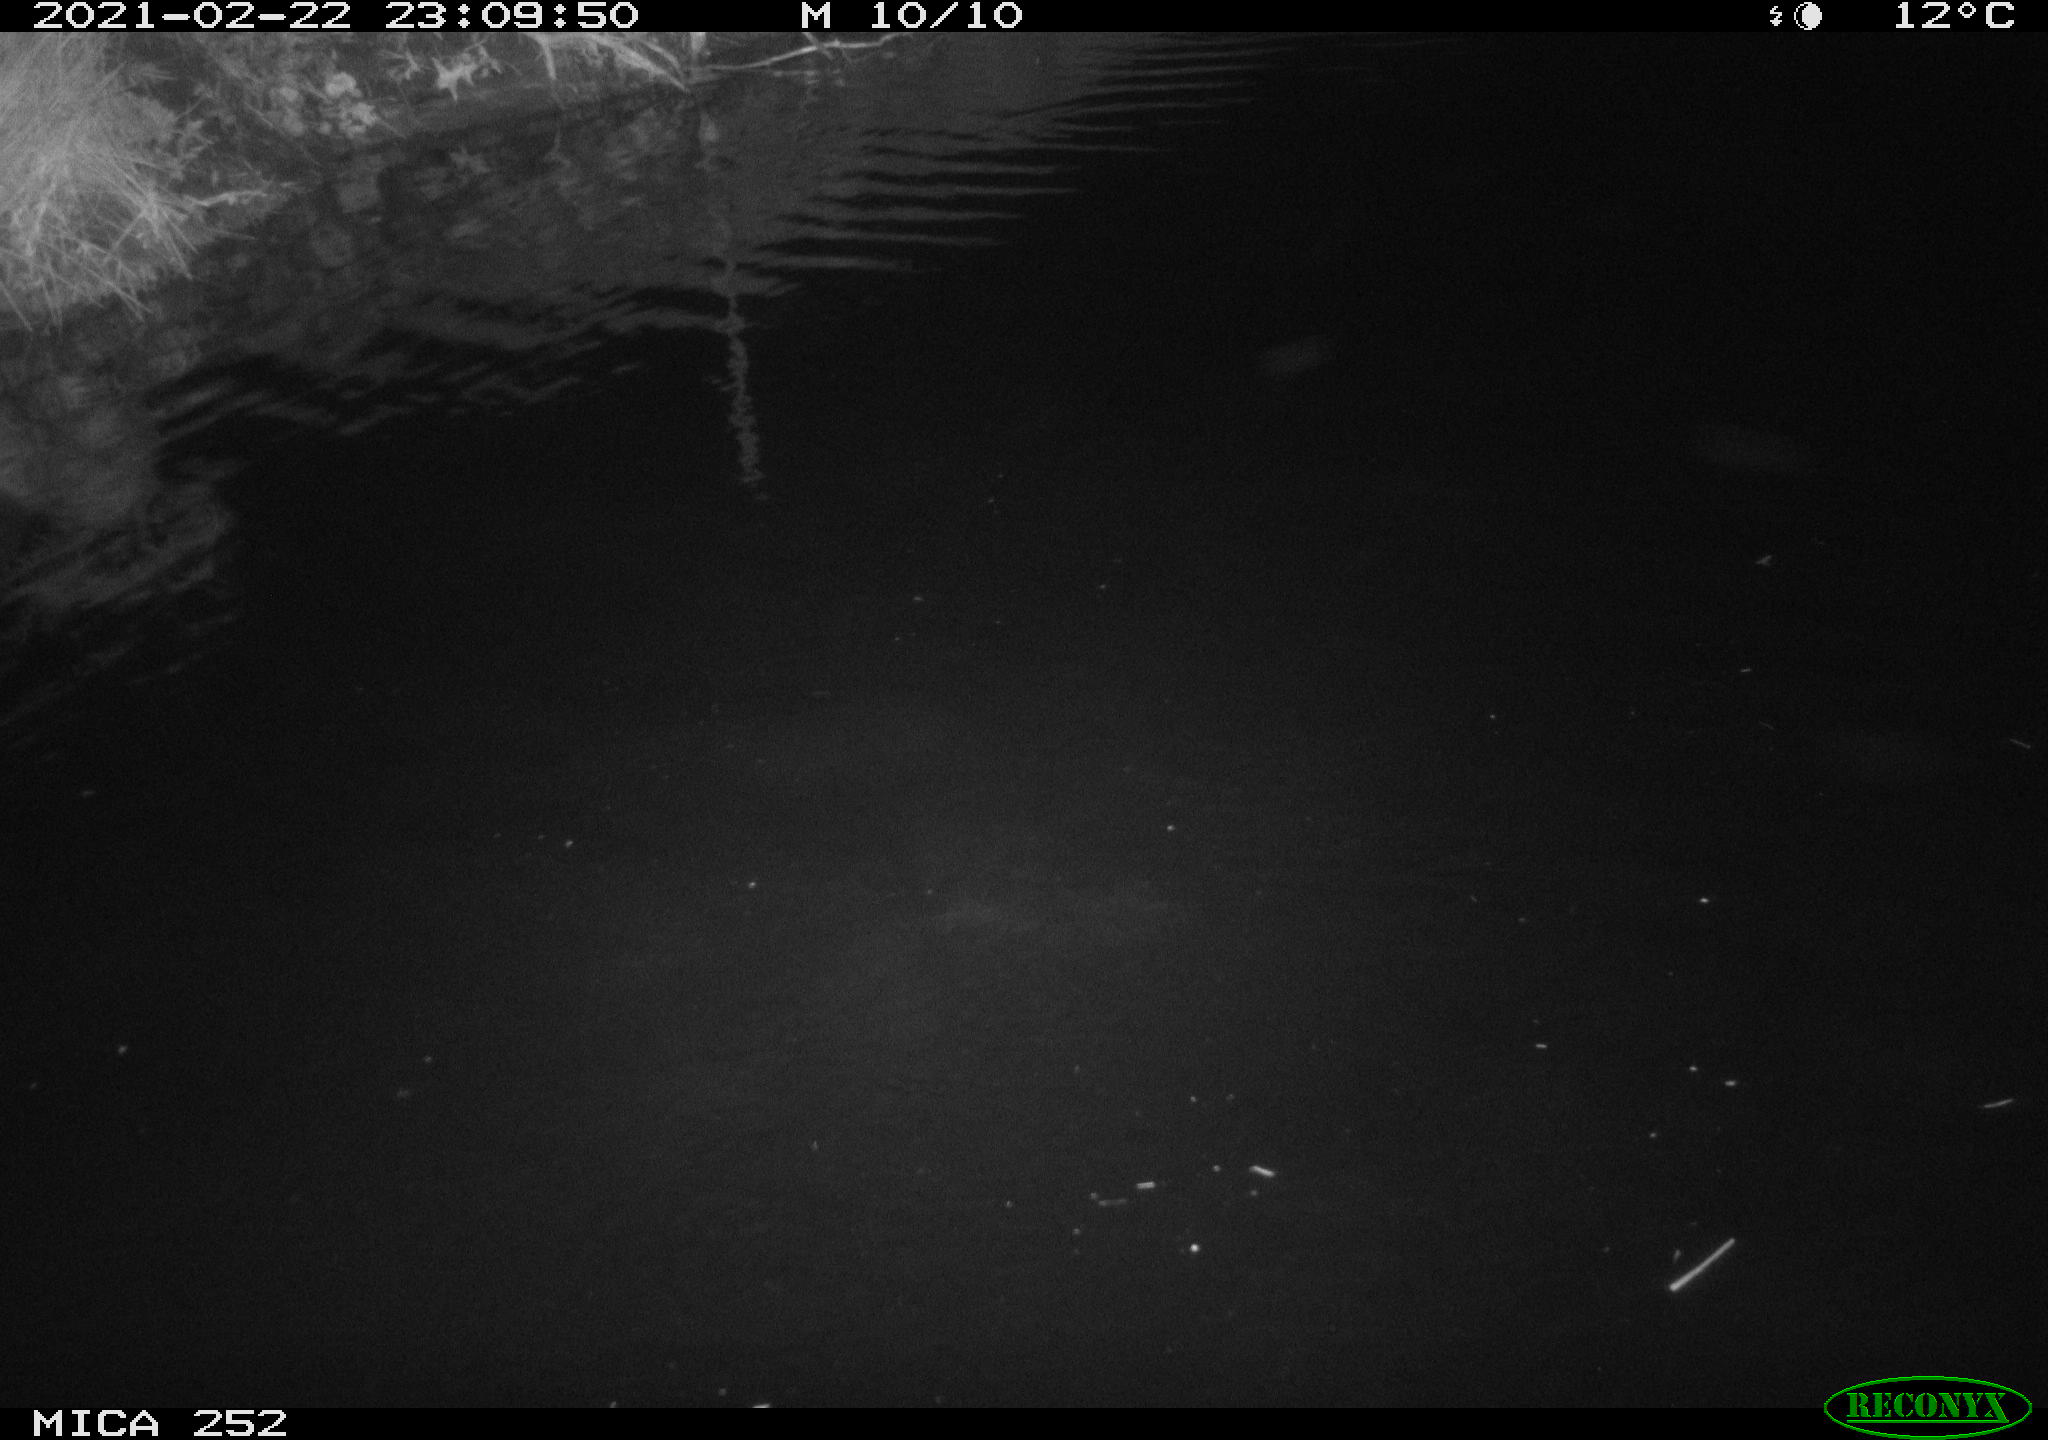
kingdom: Animalia
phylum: Chordata
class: Mammalia
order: Rodentia
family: Castoridae
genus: Castor
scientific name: Castor fiber
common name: Eurasian beaver
